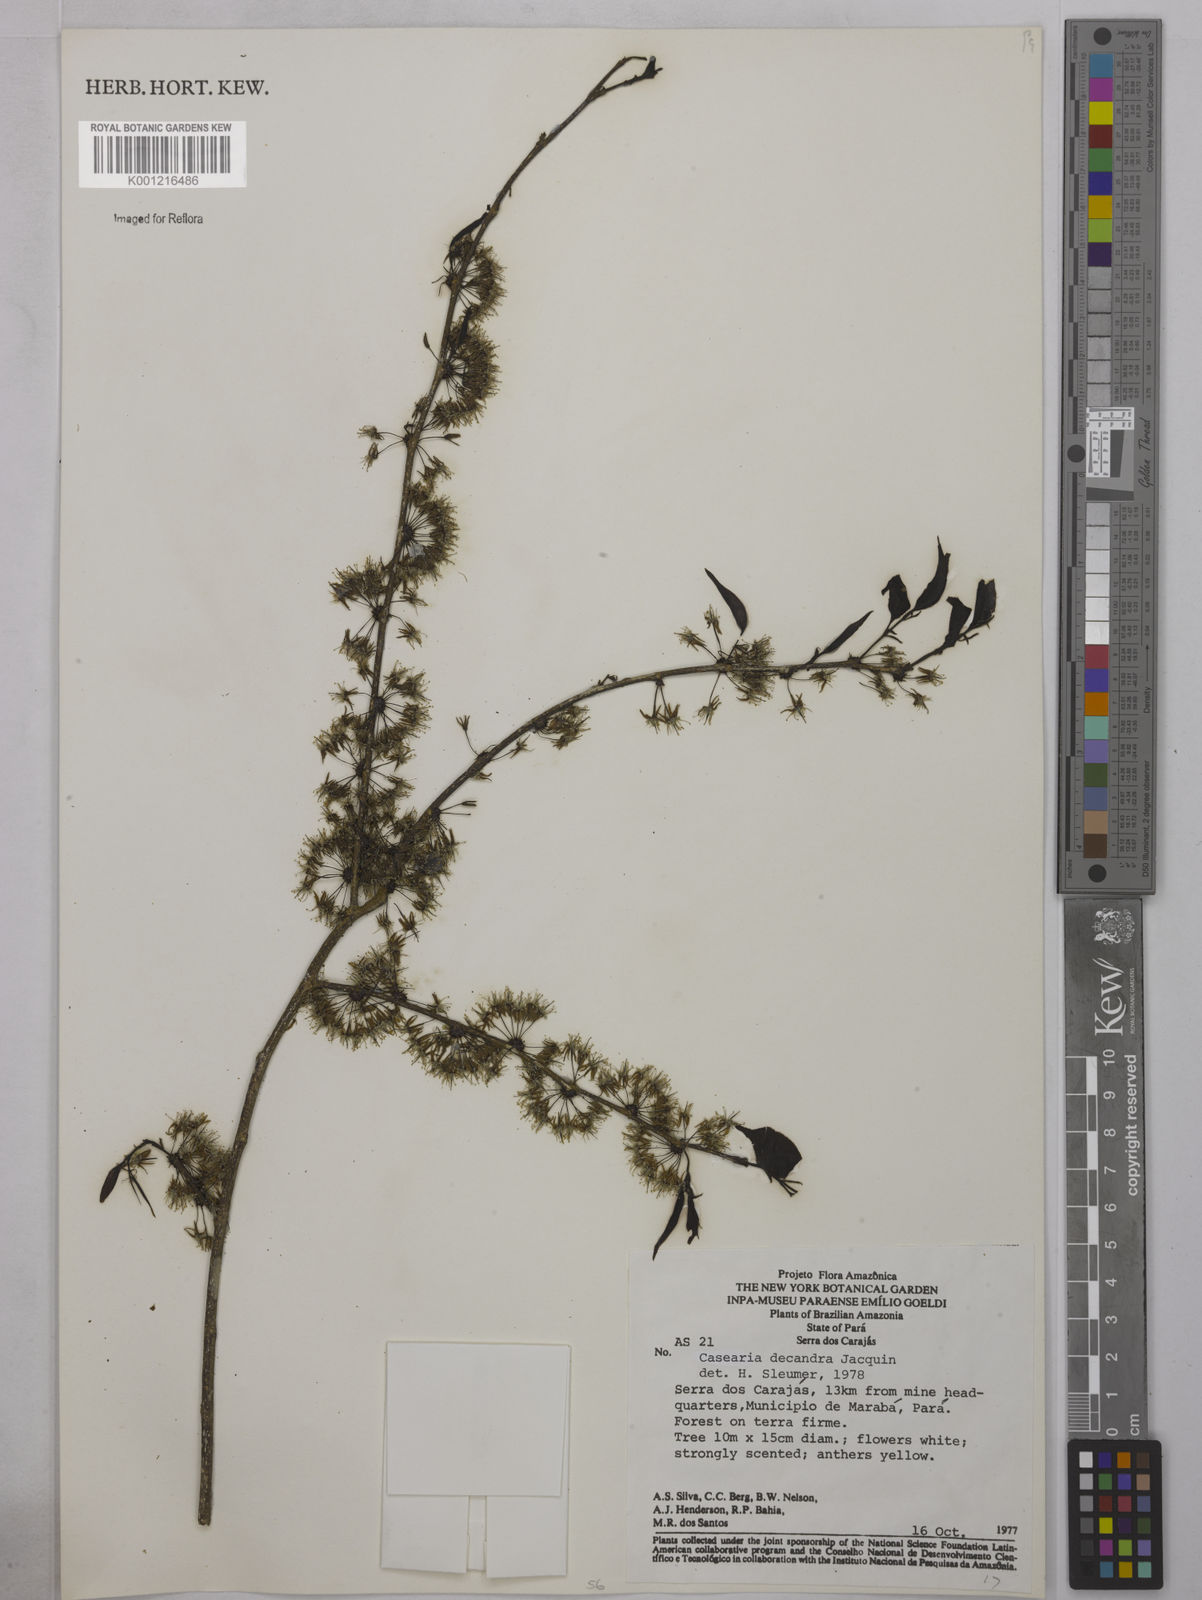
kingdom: Plantae
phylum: Tracheophyta
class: Magnoliopsida
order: Malpighiales
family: Salicaceae
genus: Casearia
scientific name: Casearia decandra
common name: Crack open
